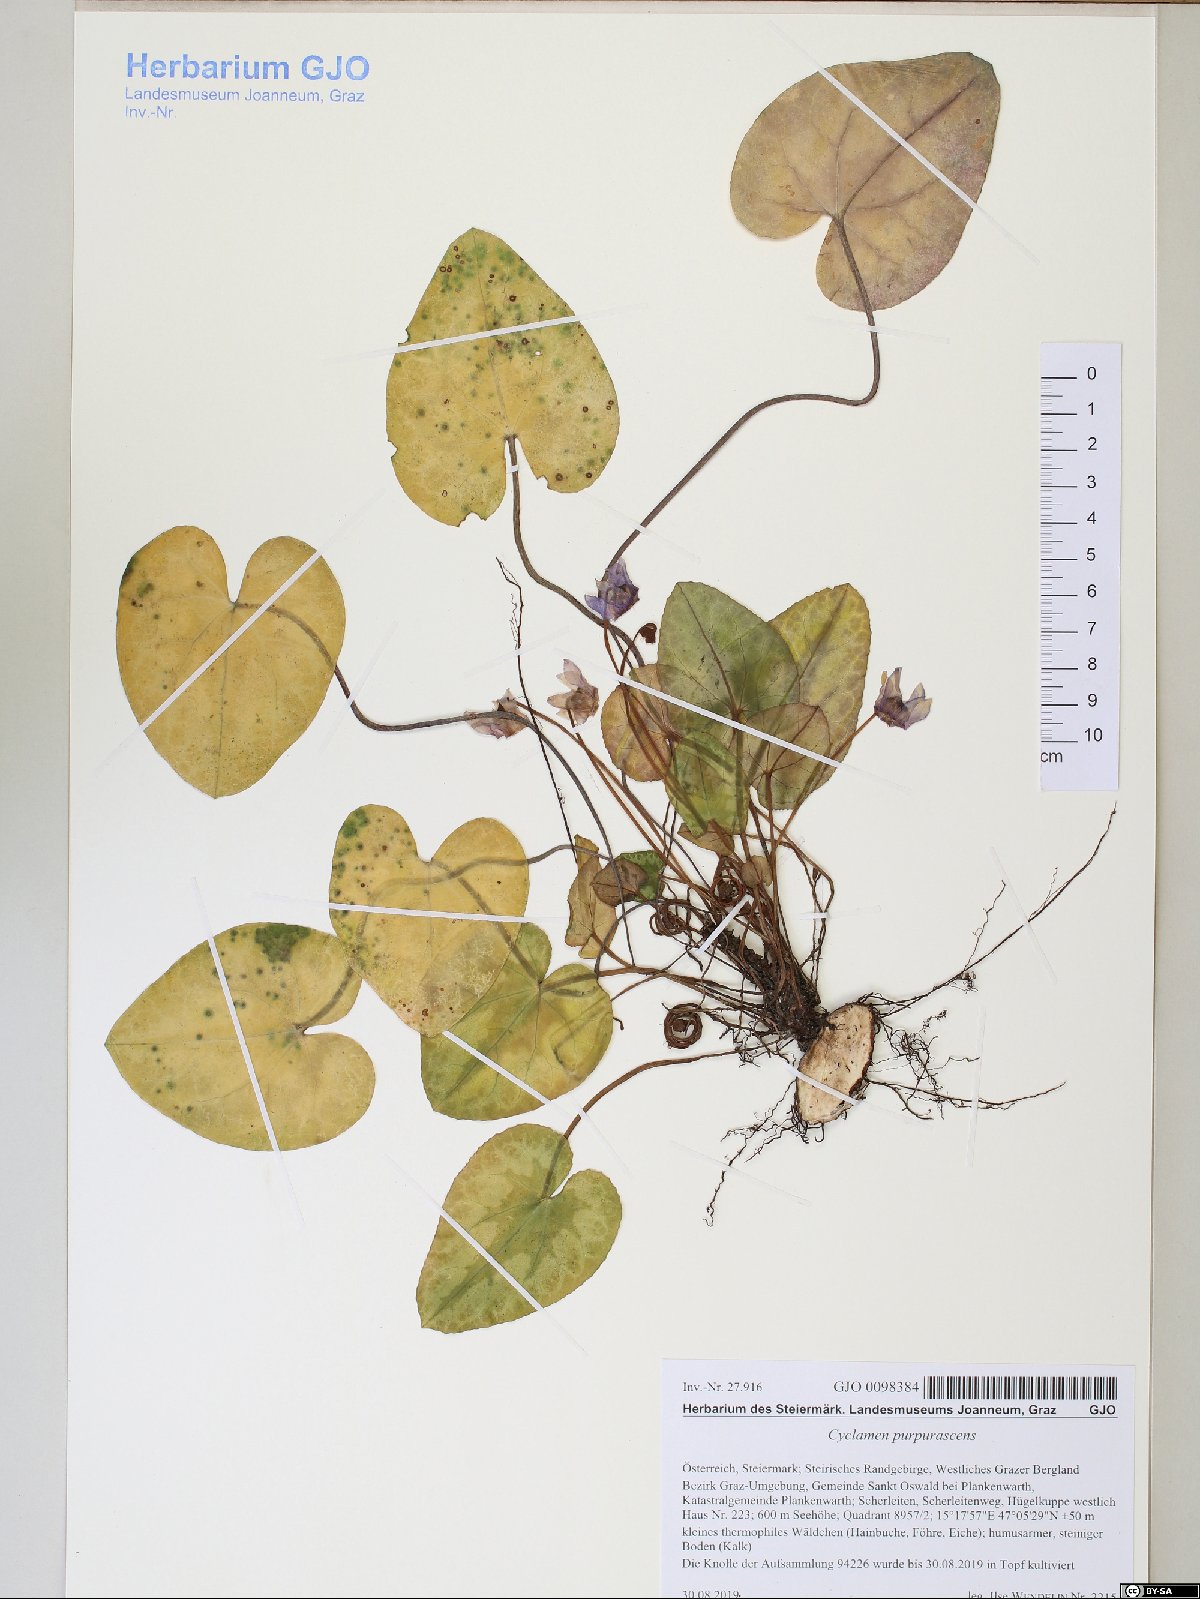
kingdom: Plantae
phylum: Tracheophyta
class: Magnoliopsida
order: Ericales
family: Primulaceae
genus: Cyclamen
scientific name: Cyclamen purpurascens
